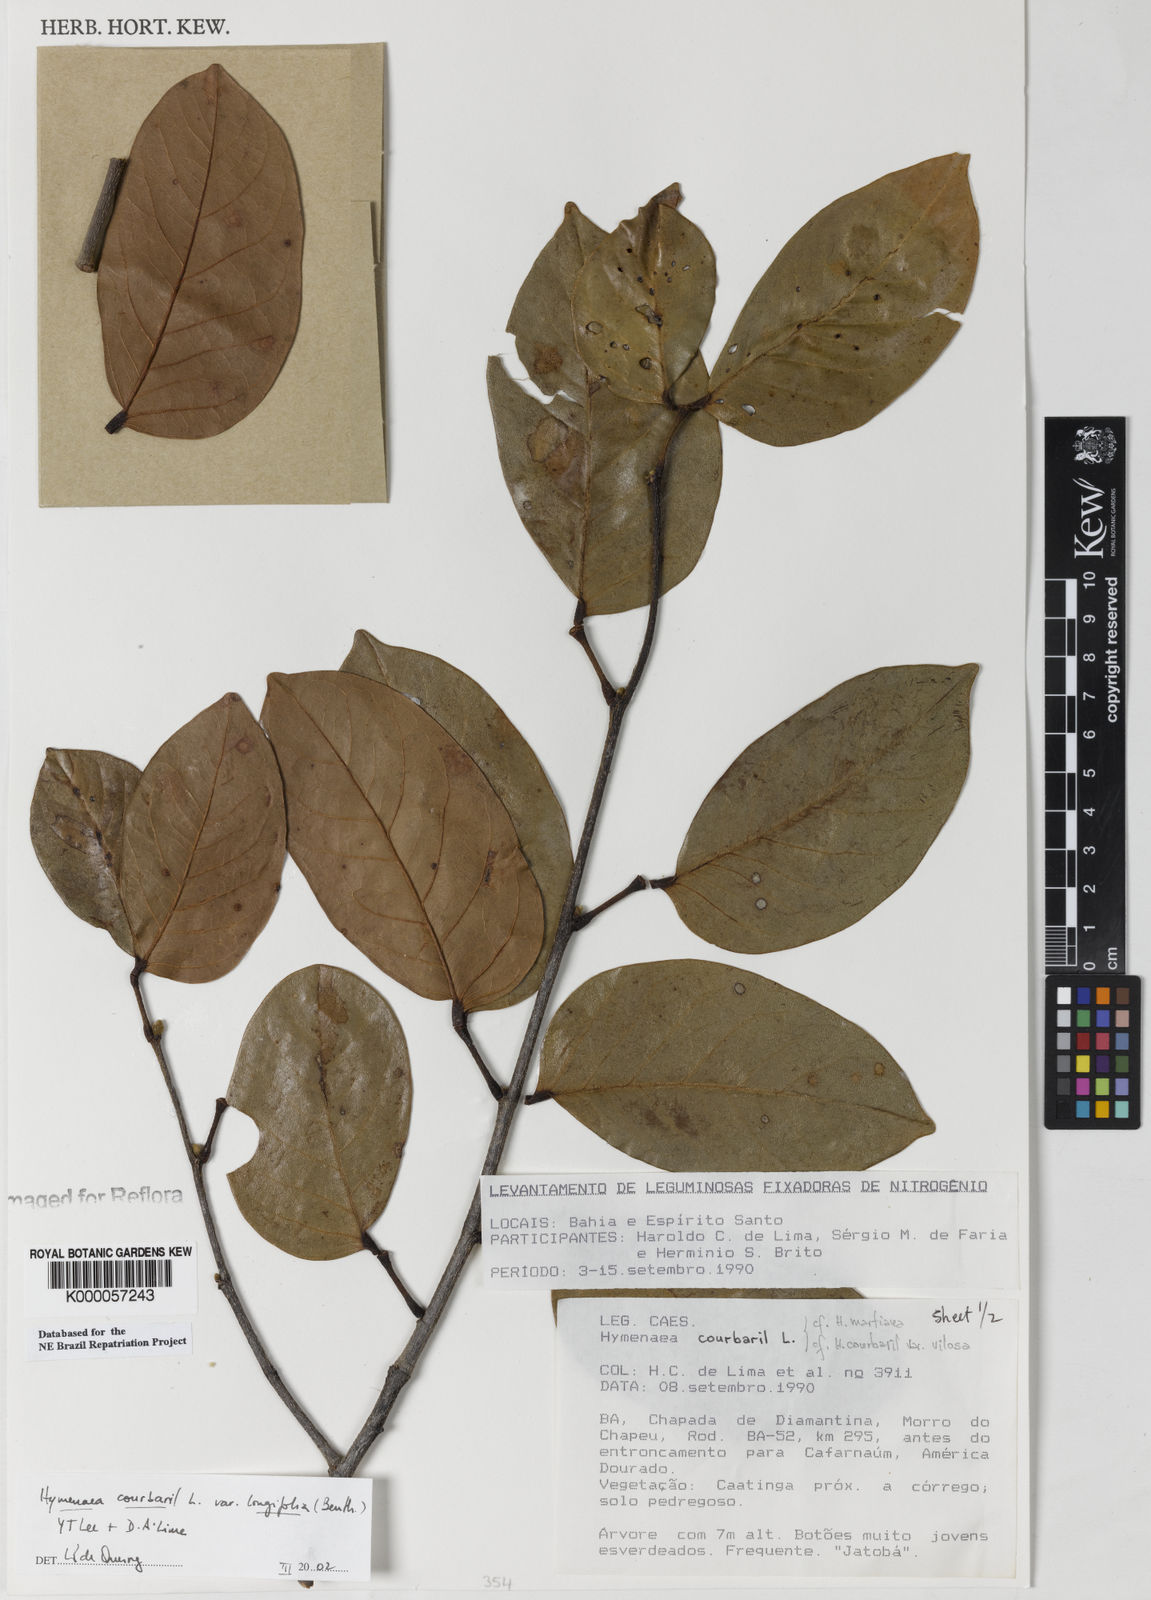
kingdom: Plantae
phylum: Tracheophyta
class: Magnoliopsida
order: Fabales
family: Fabaceae
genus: Hymenaea
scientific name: Hymenaea longifolia
